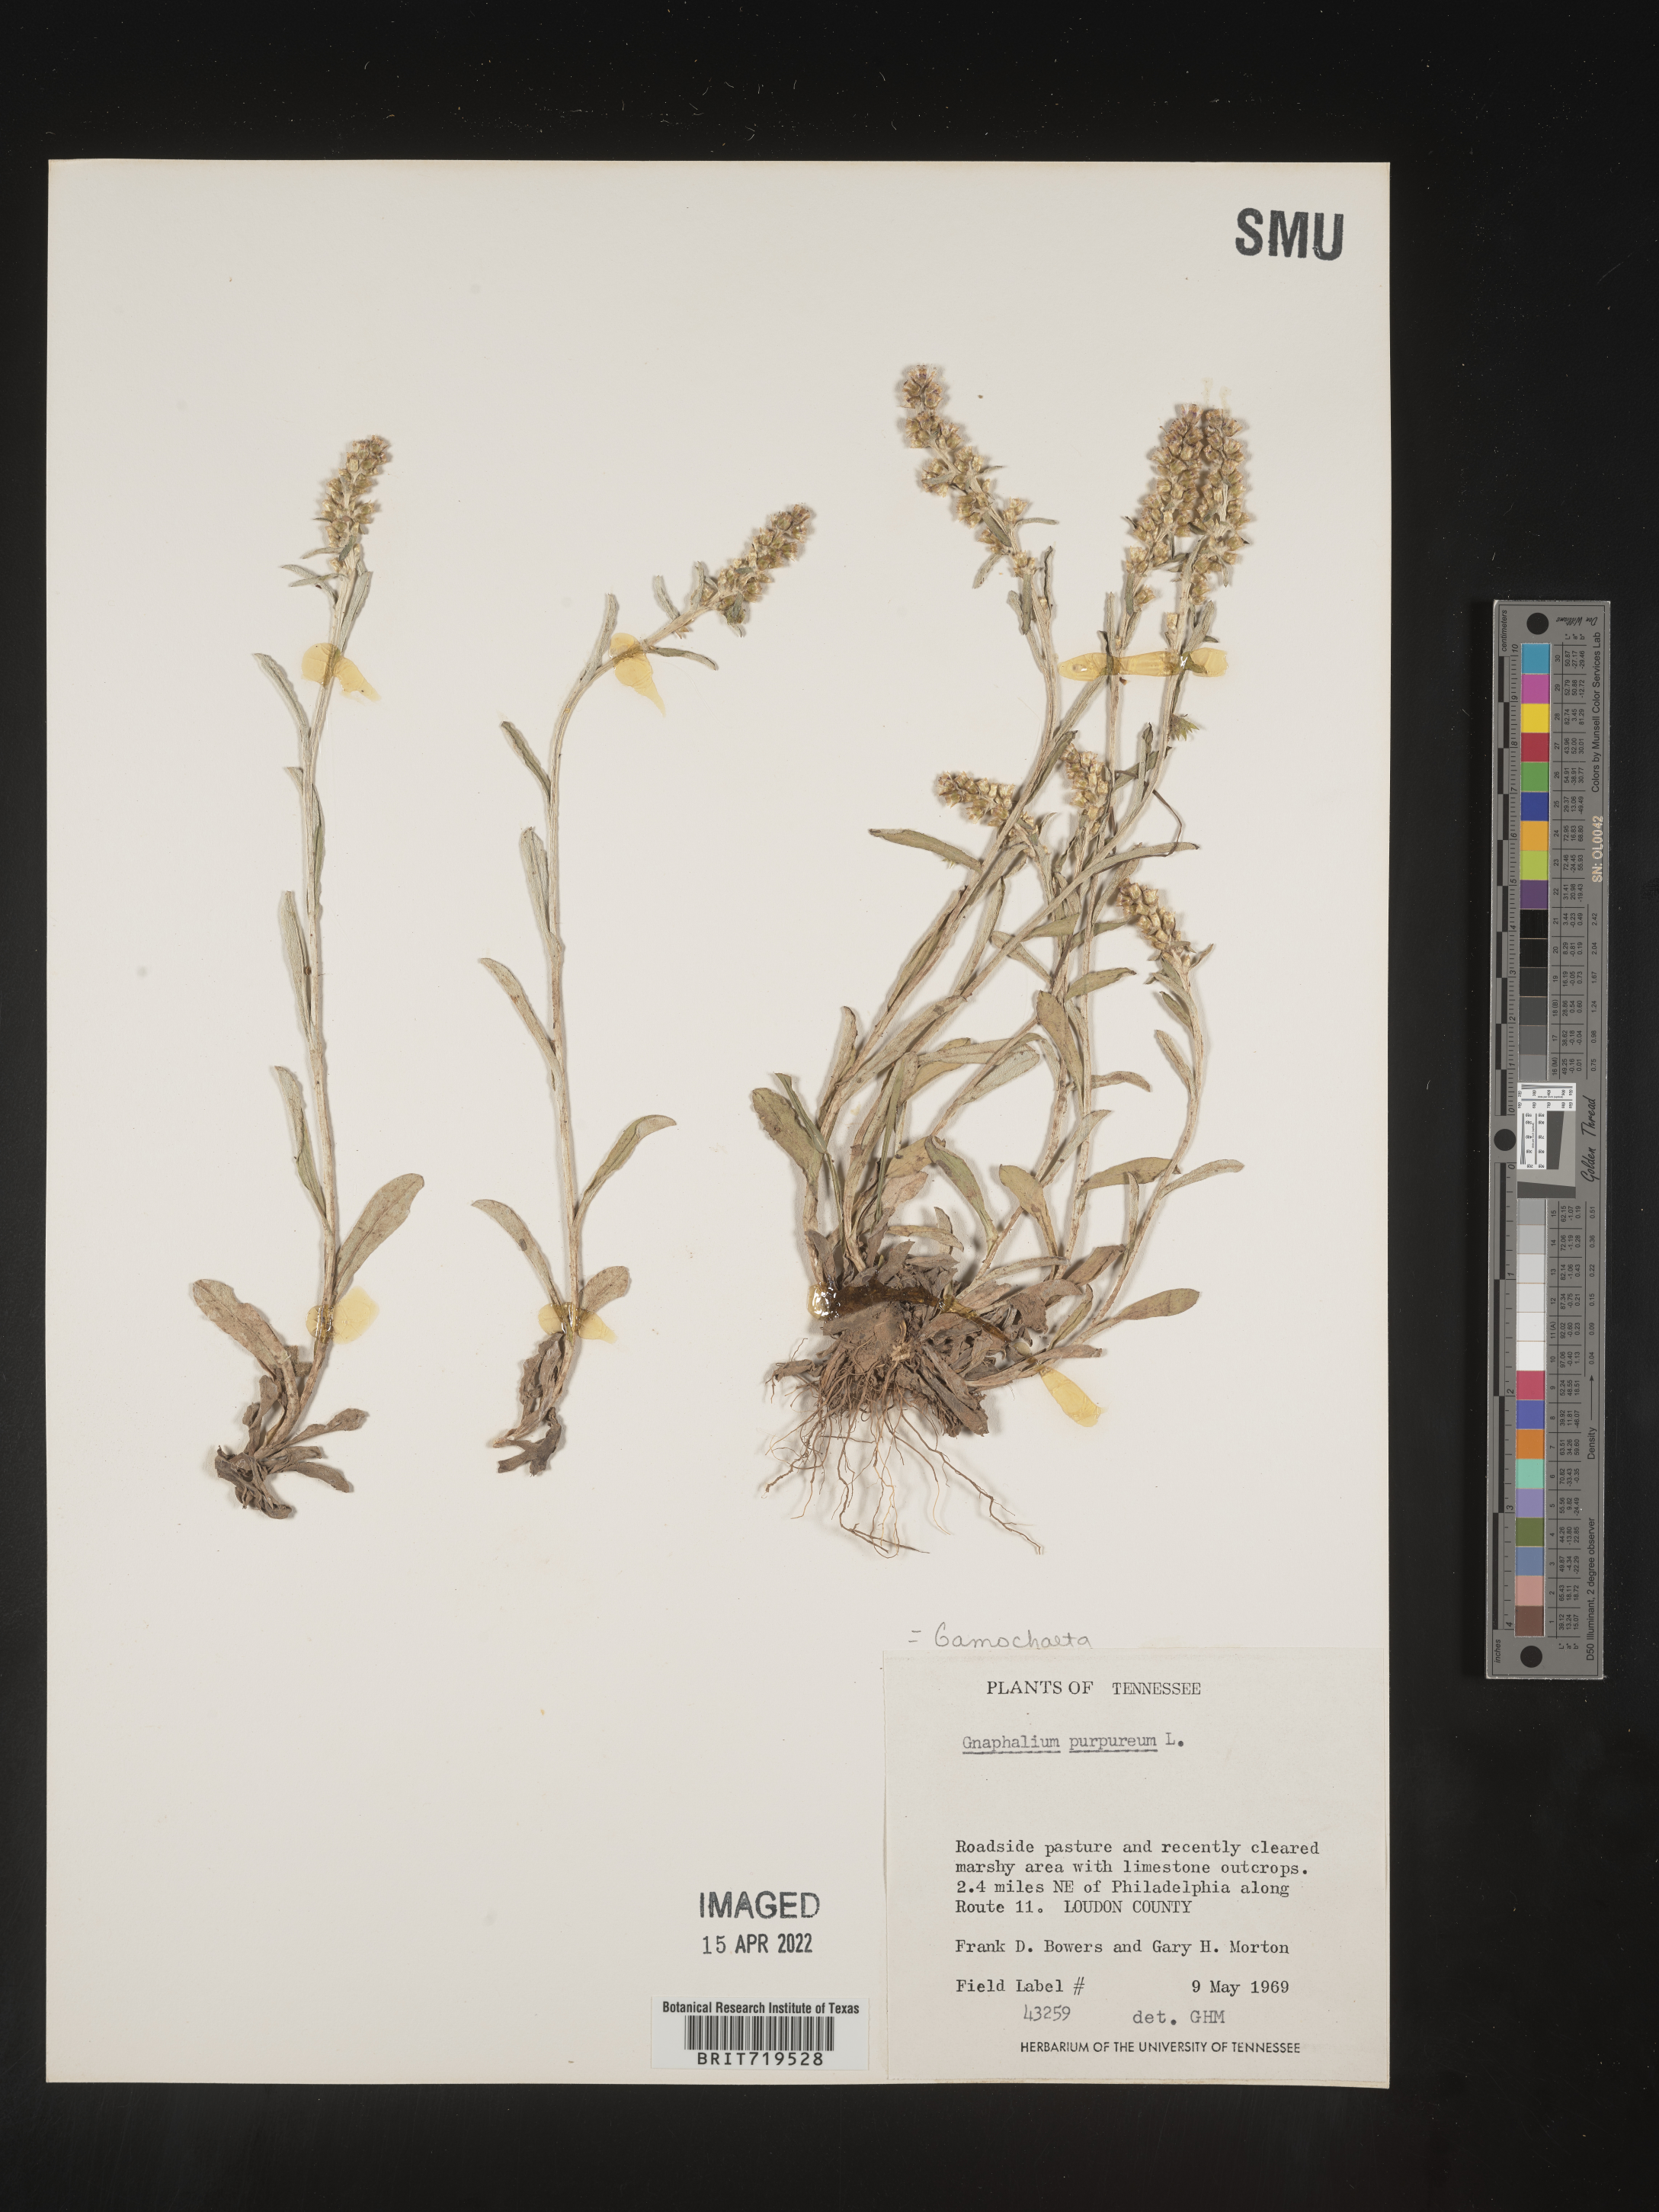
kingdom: Plantae
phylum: Tracheophyta
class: Magnoliopsida
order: Asterales
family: Asteraceae
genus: Gamochaeta
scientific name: Gamochaeta purpurea
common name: Purple cudweed
